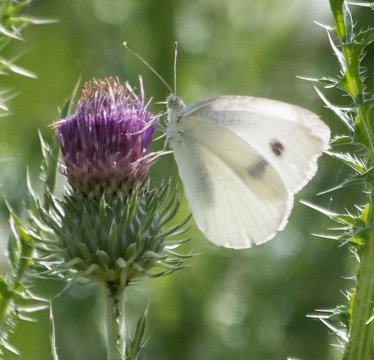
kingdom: Animalia
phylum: Arthropoda
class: Insecta
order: Lepidoptera
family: Pieridae
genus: Pieris
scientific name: Pieris rapae
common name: Cabbage White
